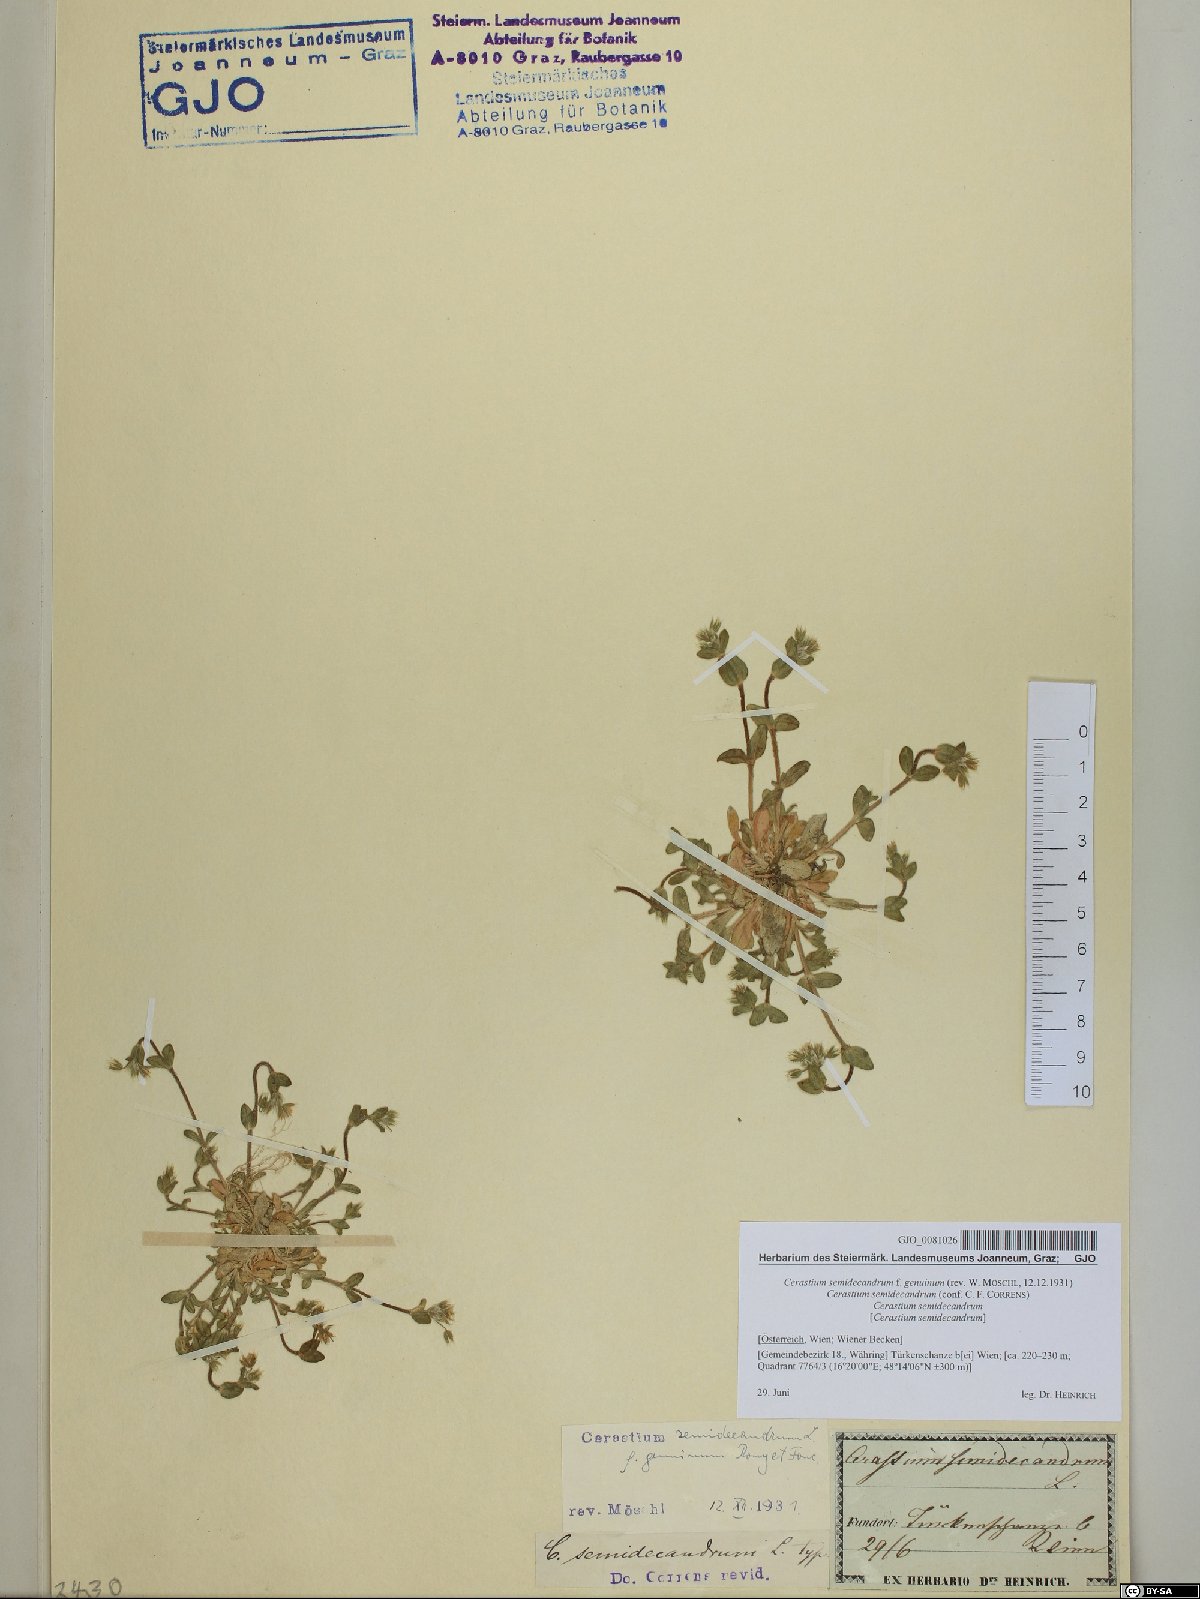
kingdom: Plantae
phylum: Tracheophyta
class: Magnoliopsida
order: Caryophyllales
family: Caryophyllaceae
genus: Cerastium
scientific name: Cerastium semidecandrum
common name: Little mouse-ear
